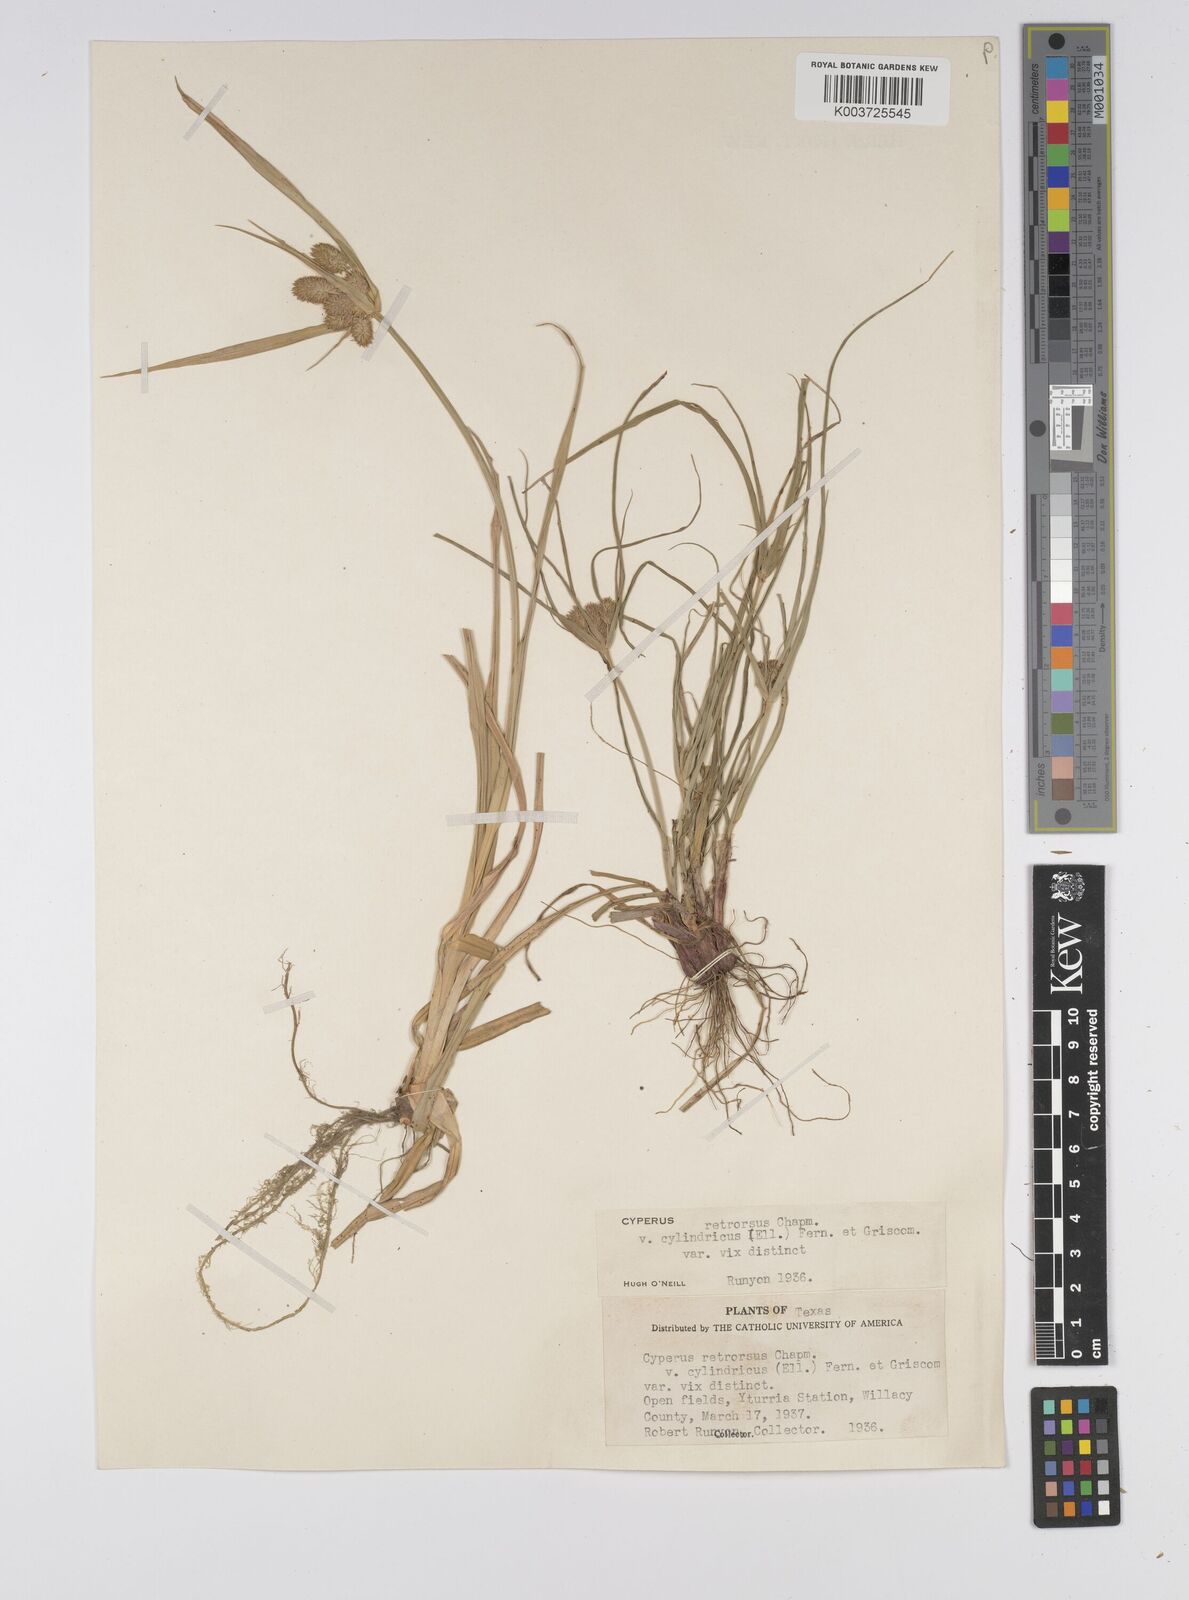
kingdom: Plantae
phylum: Tracheophyta
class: Liliopsida
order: Poales
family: Cyperaceae
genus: Cyperus
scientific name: Cyperus retrorsus
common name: Pinebarren flat sedge
